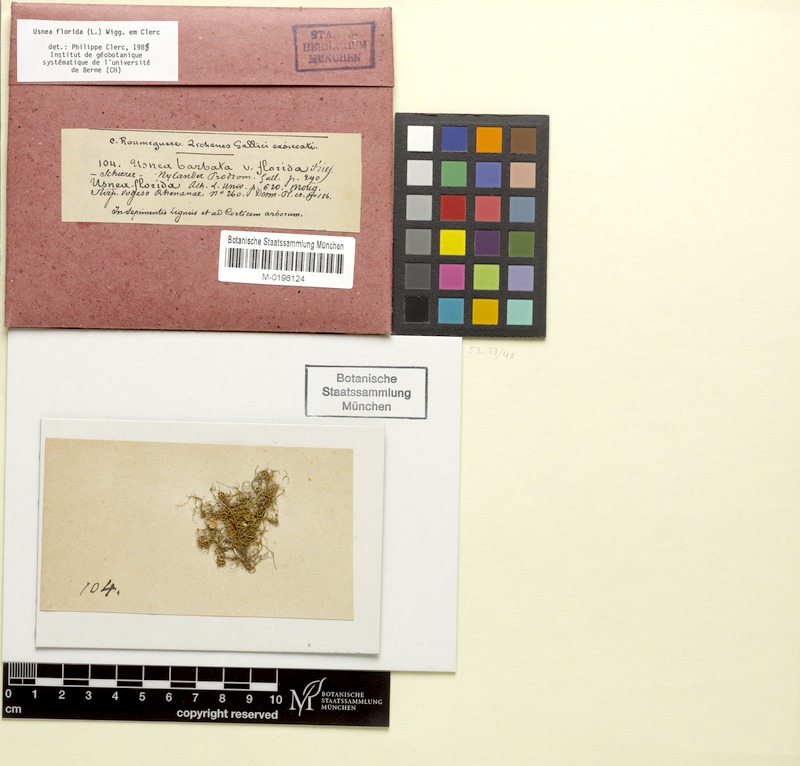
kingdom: Fungi
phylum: Ascomycota
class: Lecanoromycetes
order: Lecanorales
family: Parmeliaceae
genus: Usnea
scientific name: Usnea florida
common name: Witches' whiskers lichen
